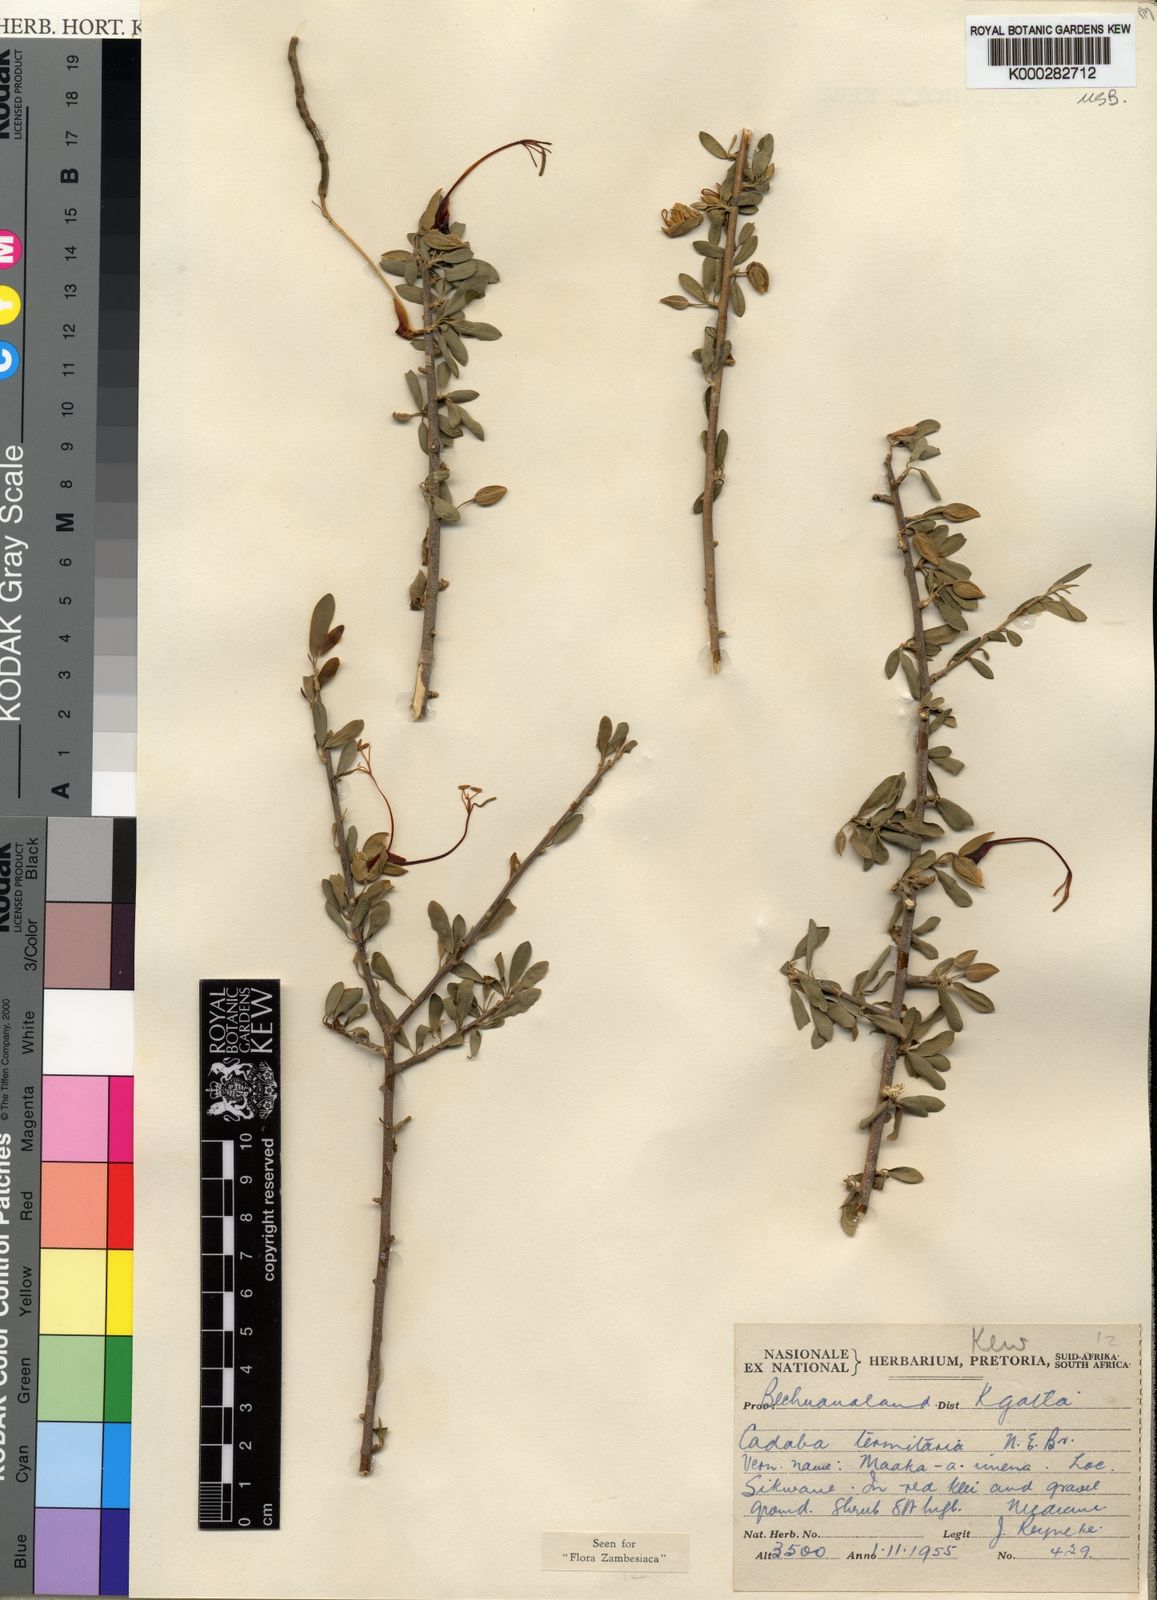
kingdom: Plantae
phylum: Tracheophyta
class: Magnoliopsida
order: Brassicales
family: Capparaceae
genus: Cadaba
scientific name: Cadaba termitaria
